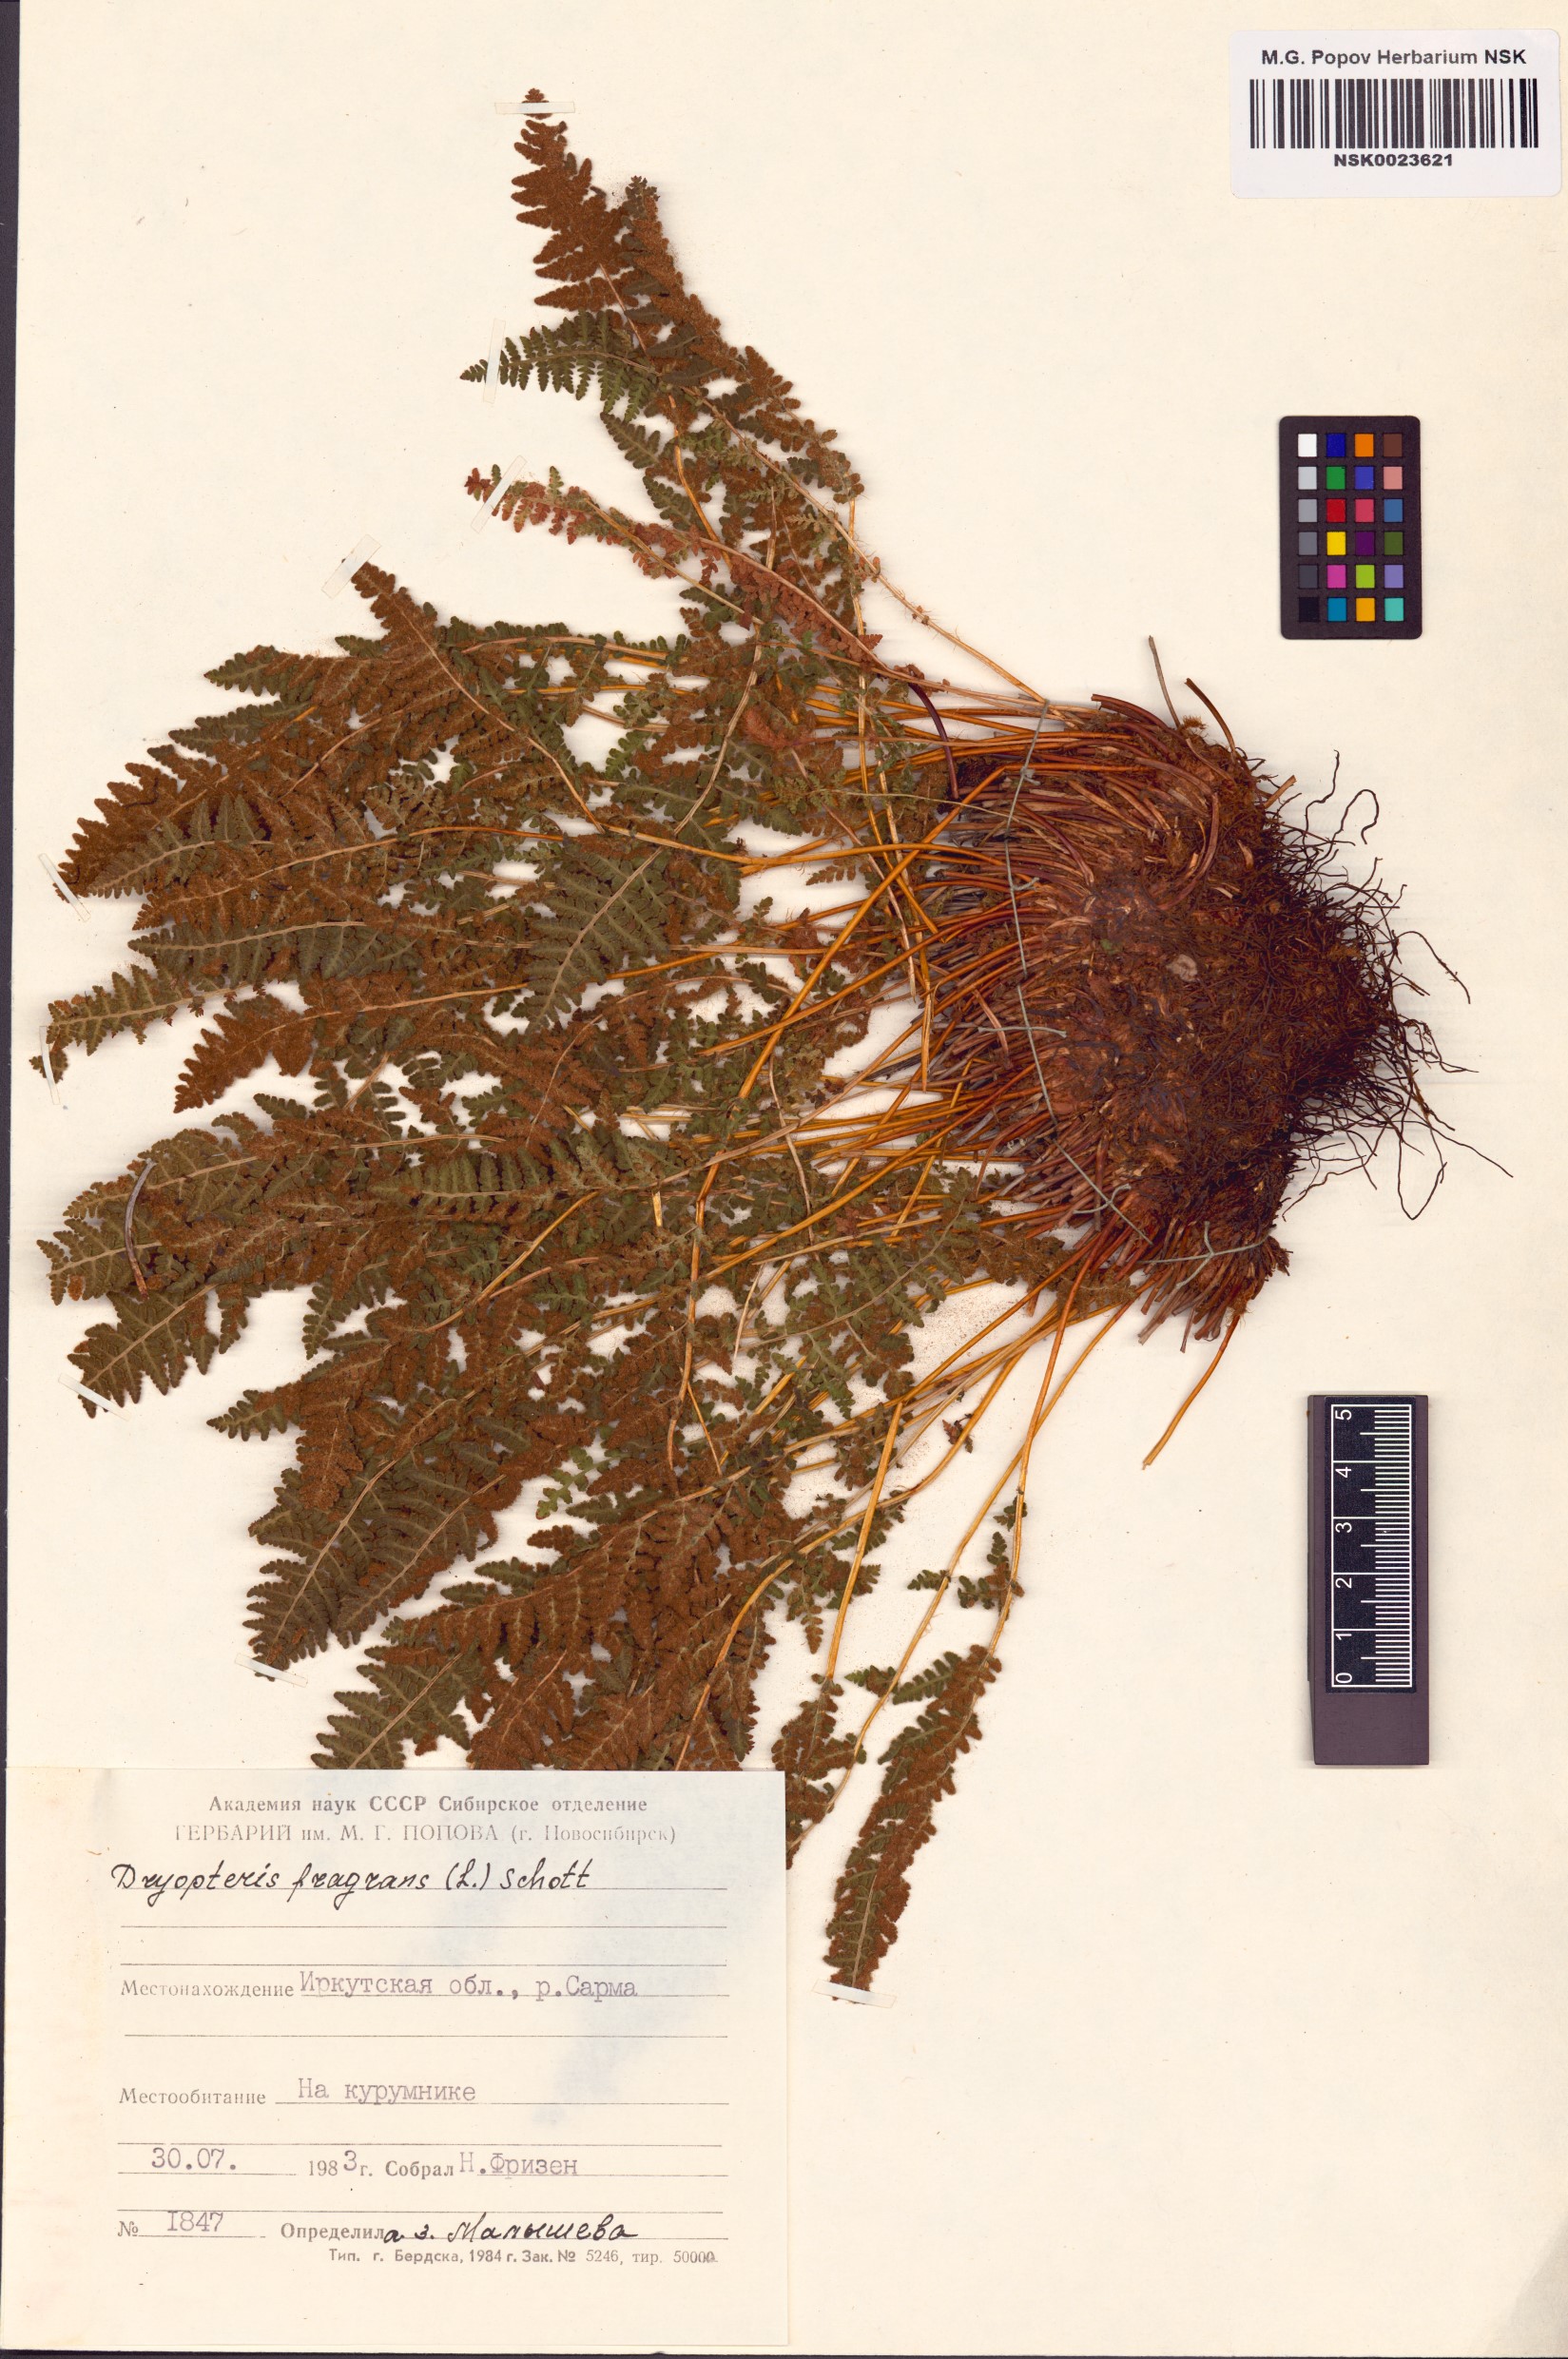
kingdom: Plantae
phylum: Tracheophyta
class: Polypodiopsida
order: Polypodiales
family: Dryopteridaceae
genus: Dryopteris
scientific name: Dryopteris fragrans
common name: Fragrant wood fern
